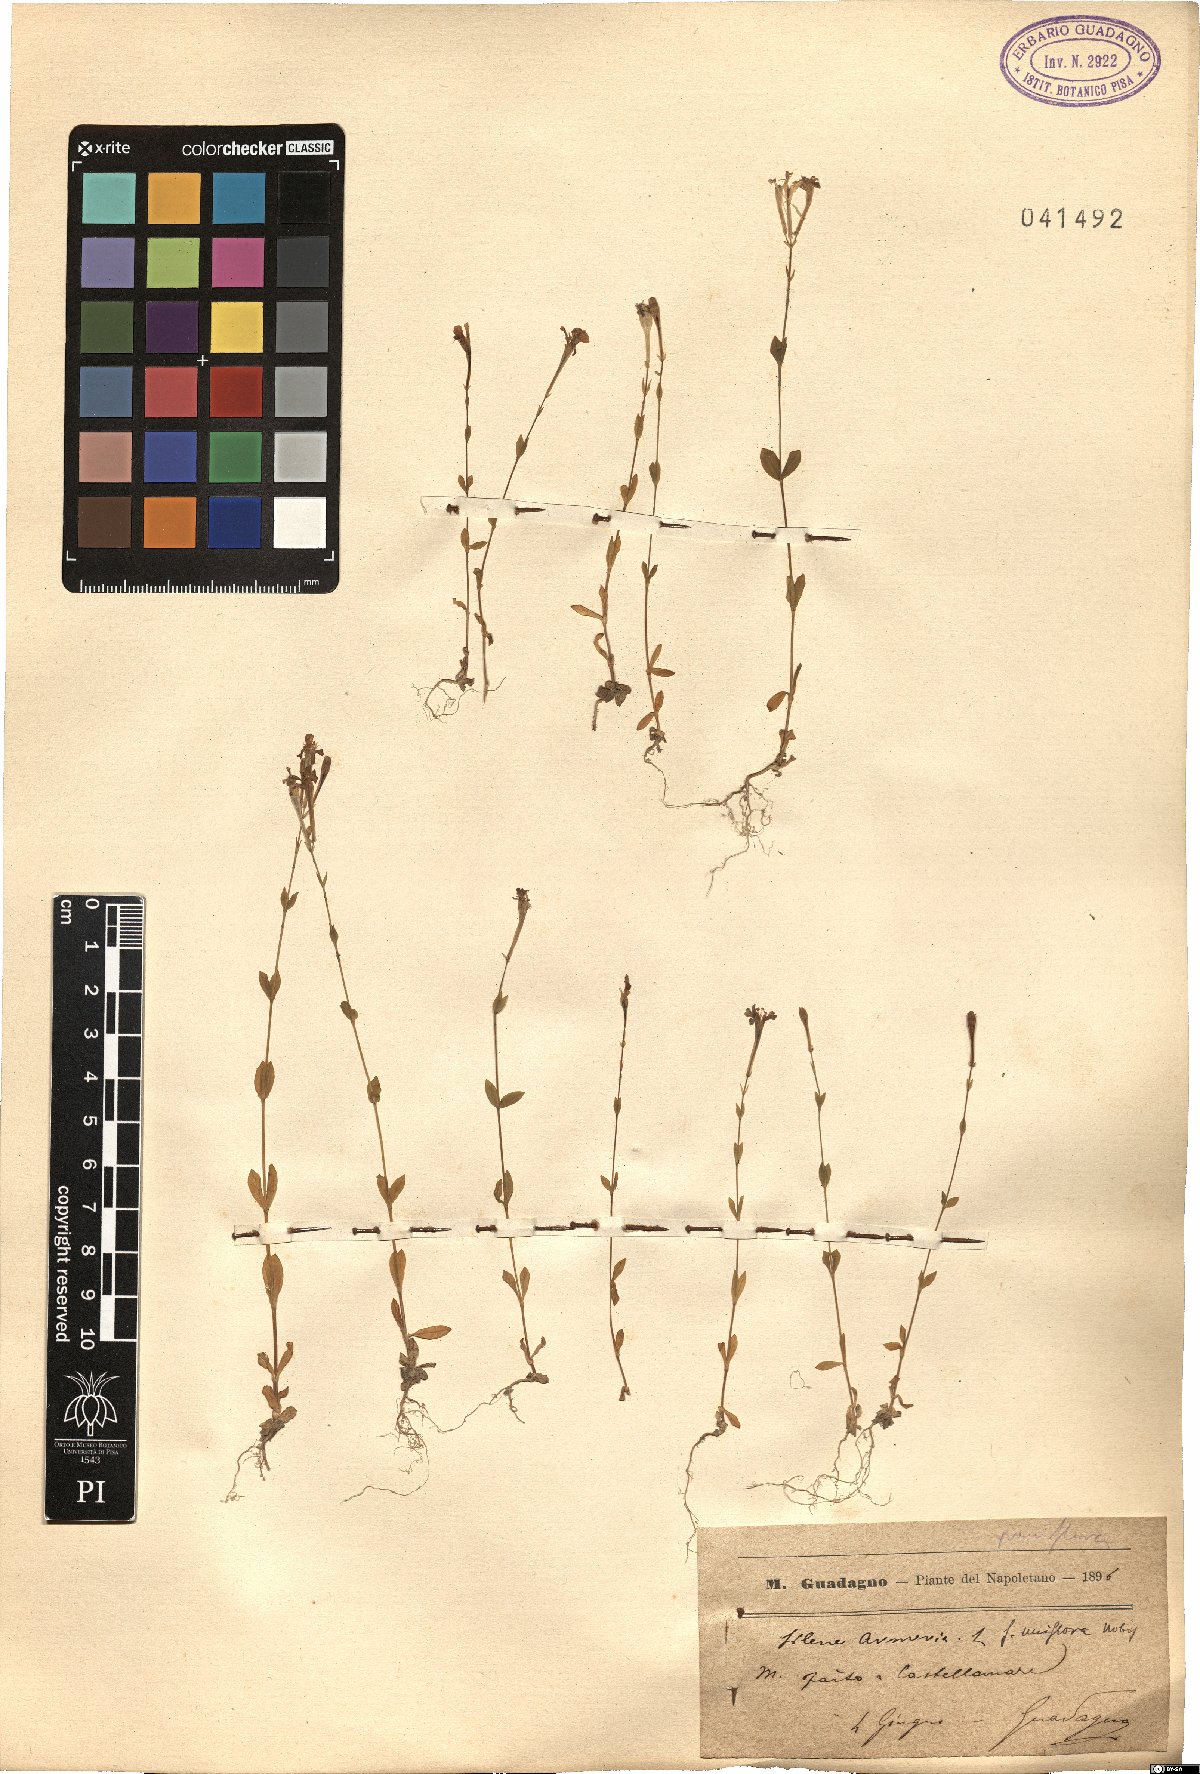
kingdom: Plantae
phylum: Tracheophyta
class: Magnoliopsida
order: Caryophyllales
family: Caryophyllaceae
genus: Atocion
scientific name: Atocion armeria
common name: Sweet william catchfly
